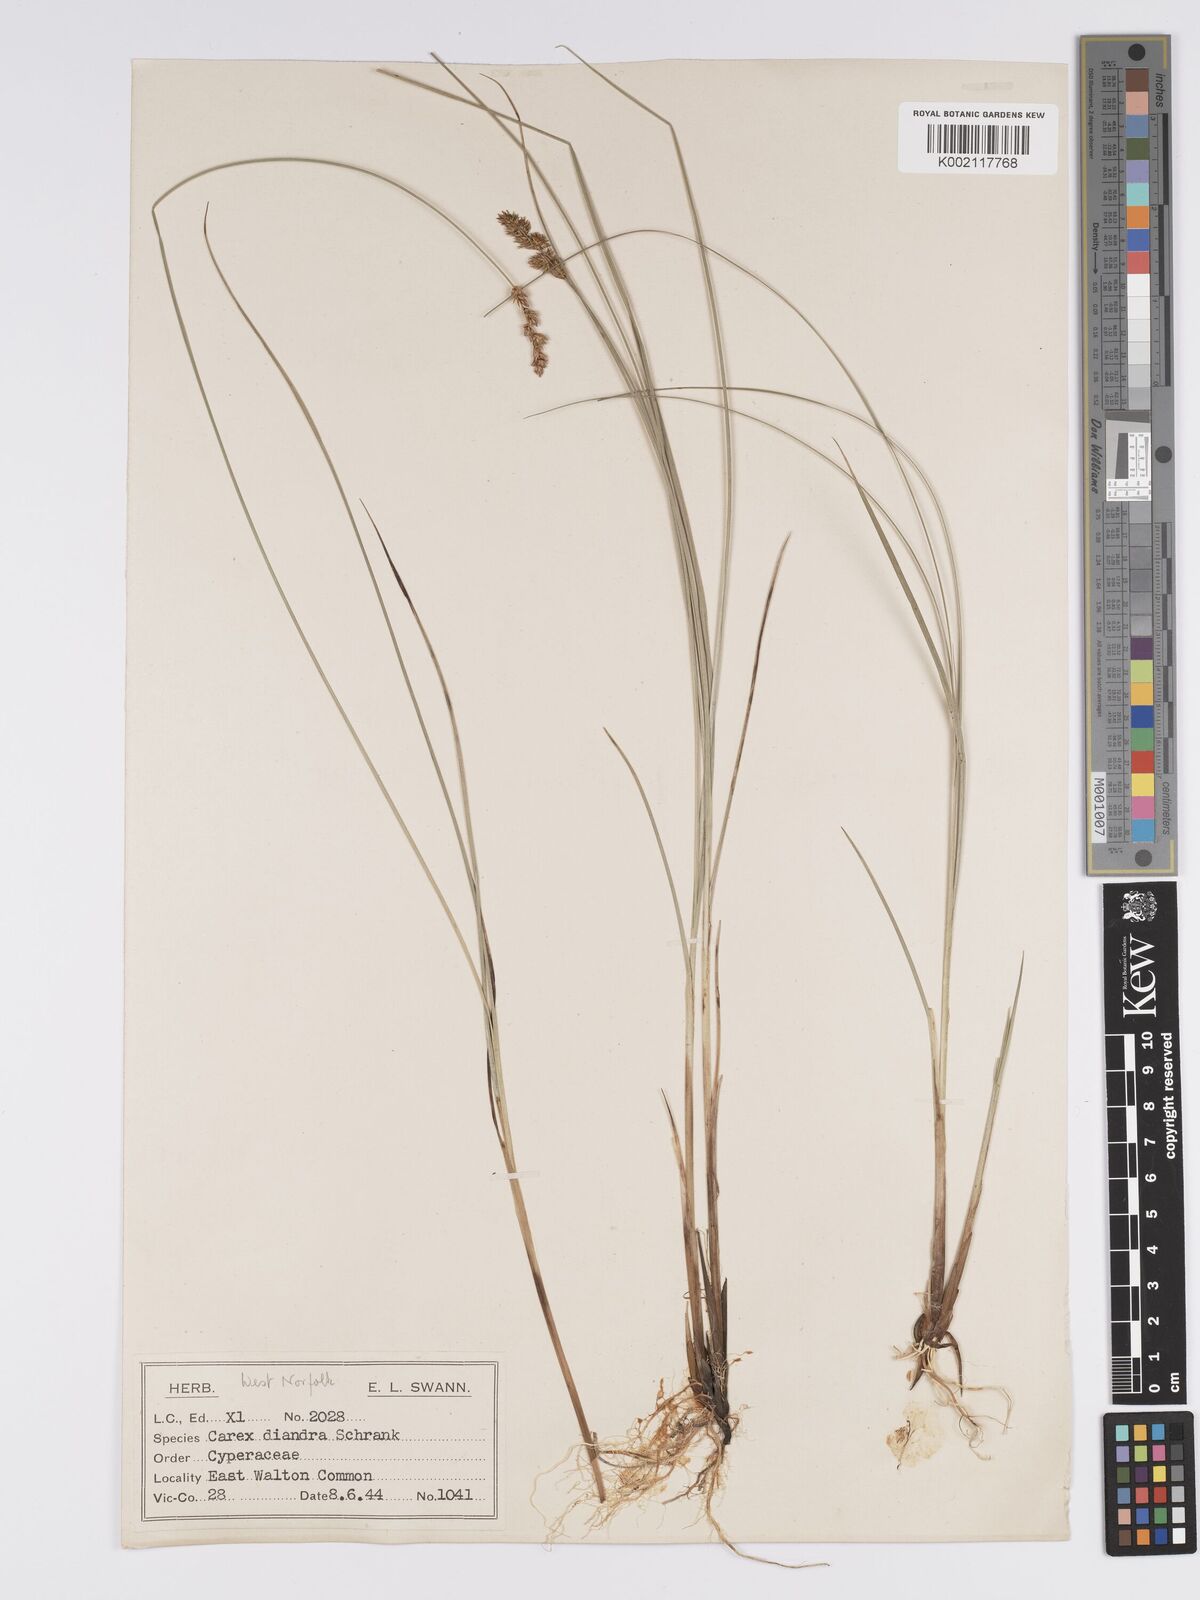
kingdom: Plantae
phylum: Tracheophyta
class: Liliopsida
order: Poales
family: Cyperaceae
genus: Carex
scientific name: Carex diandra
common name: Lesser tussock-sedge
